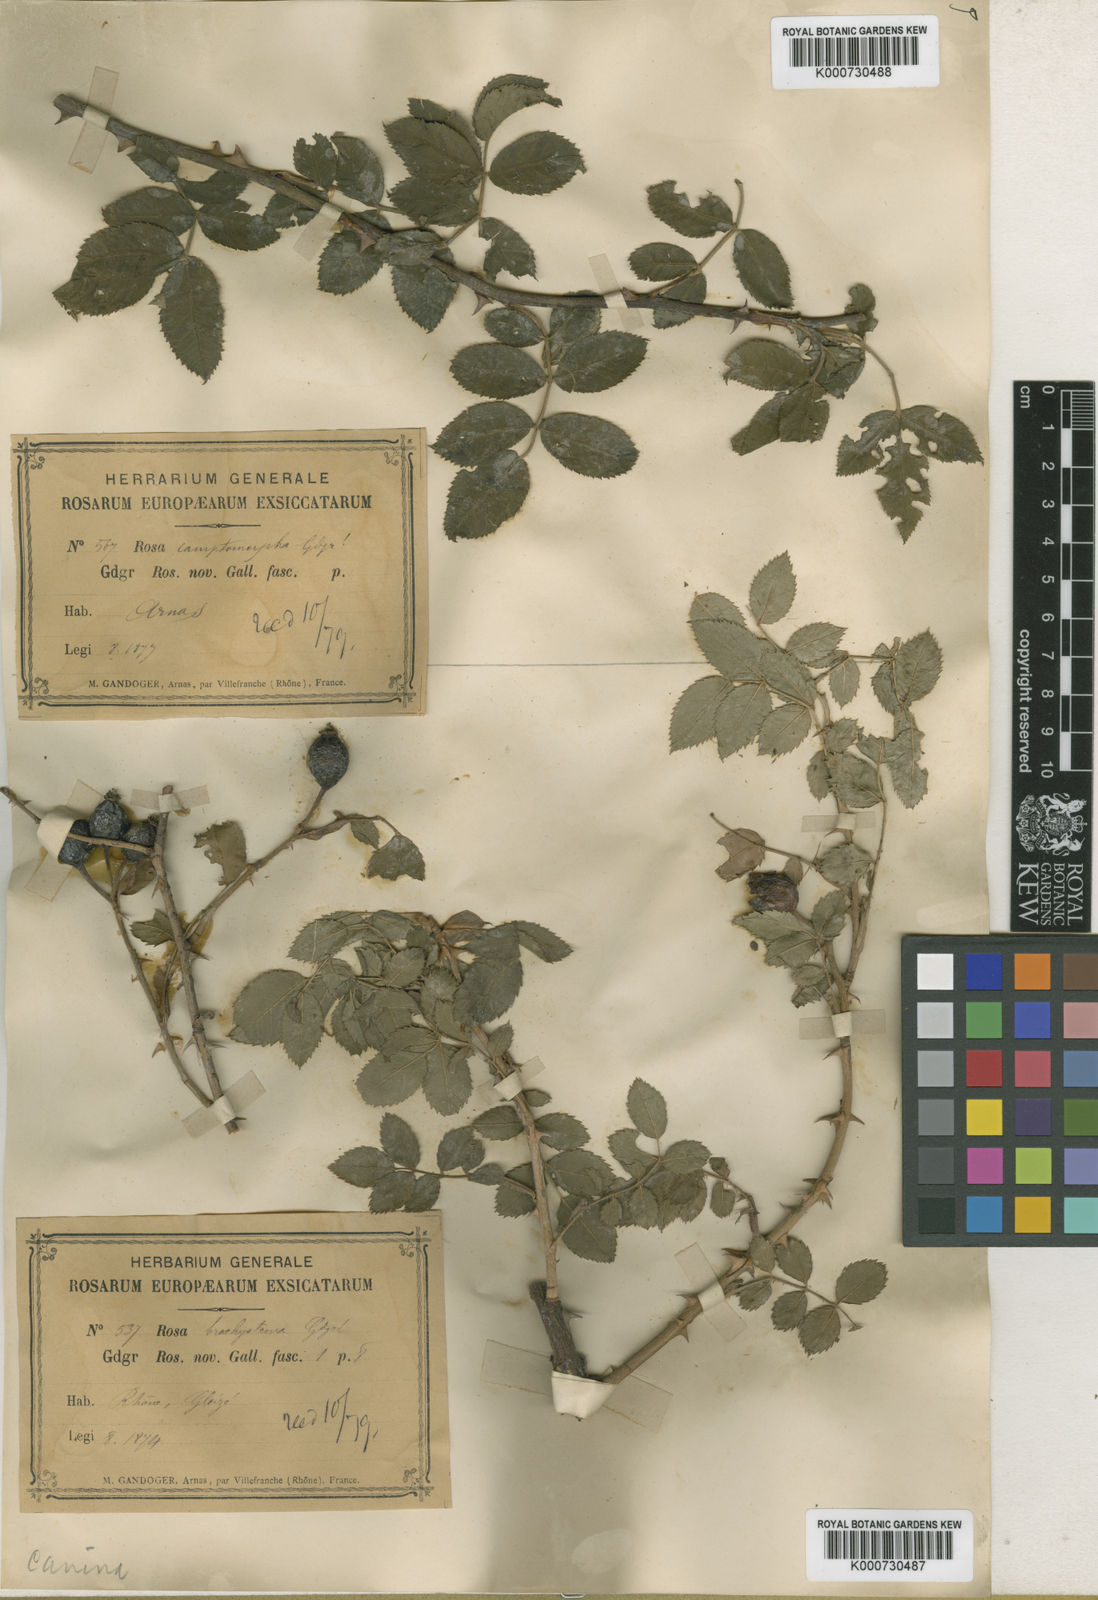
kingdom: Plantae
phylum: Tracheophyta
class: Magnoliopsida
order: Rosales
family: Rosaceae
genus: Rosa
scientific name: Rosa canina
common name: Dog rose
